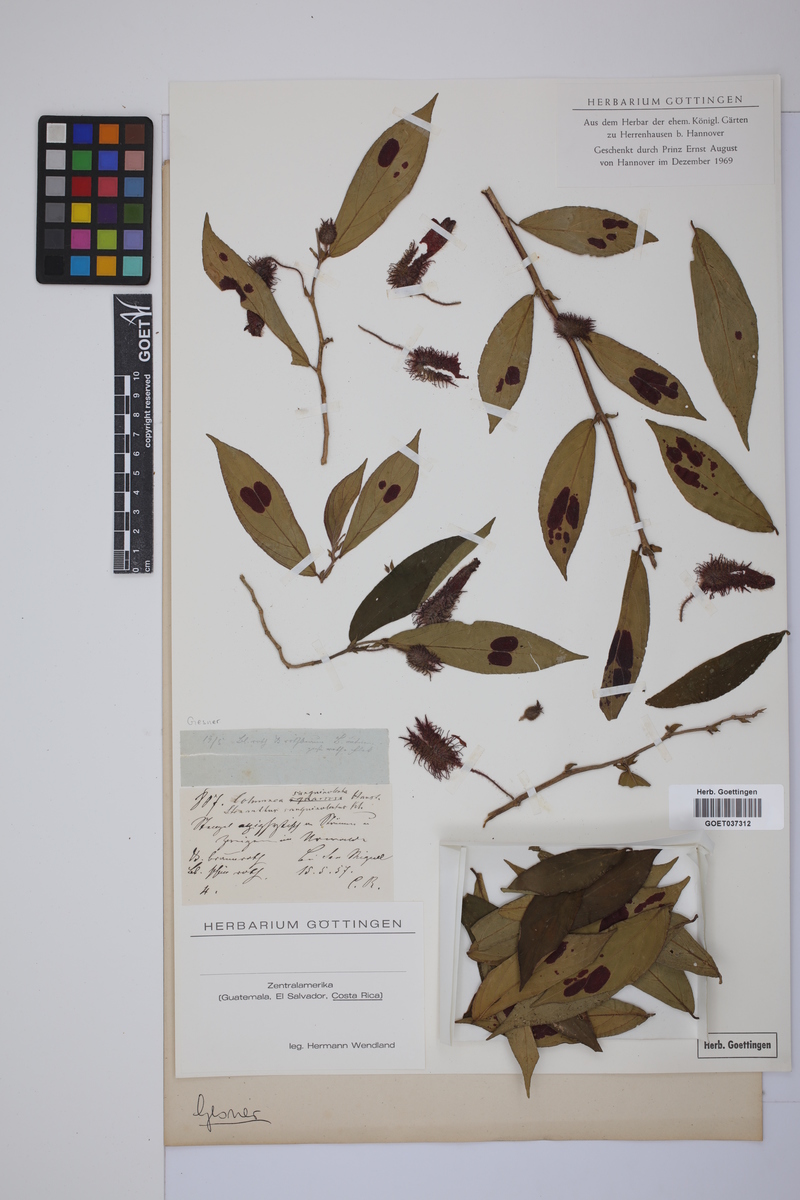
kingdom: Plantae
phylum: Tracheophyta
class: Magnoliopsida
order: Lamiales
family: Gesneriaceae
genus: Columnea
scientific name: Columnea sanguinolenta
